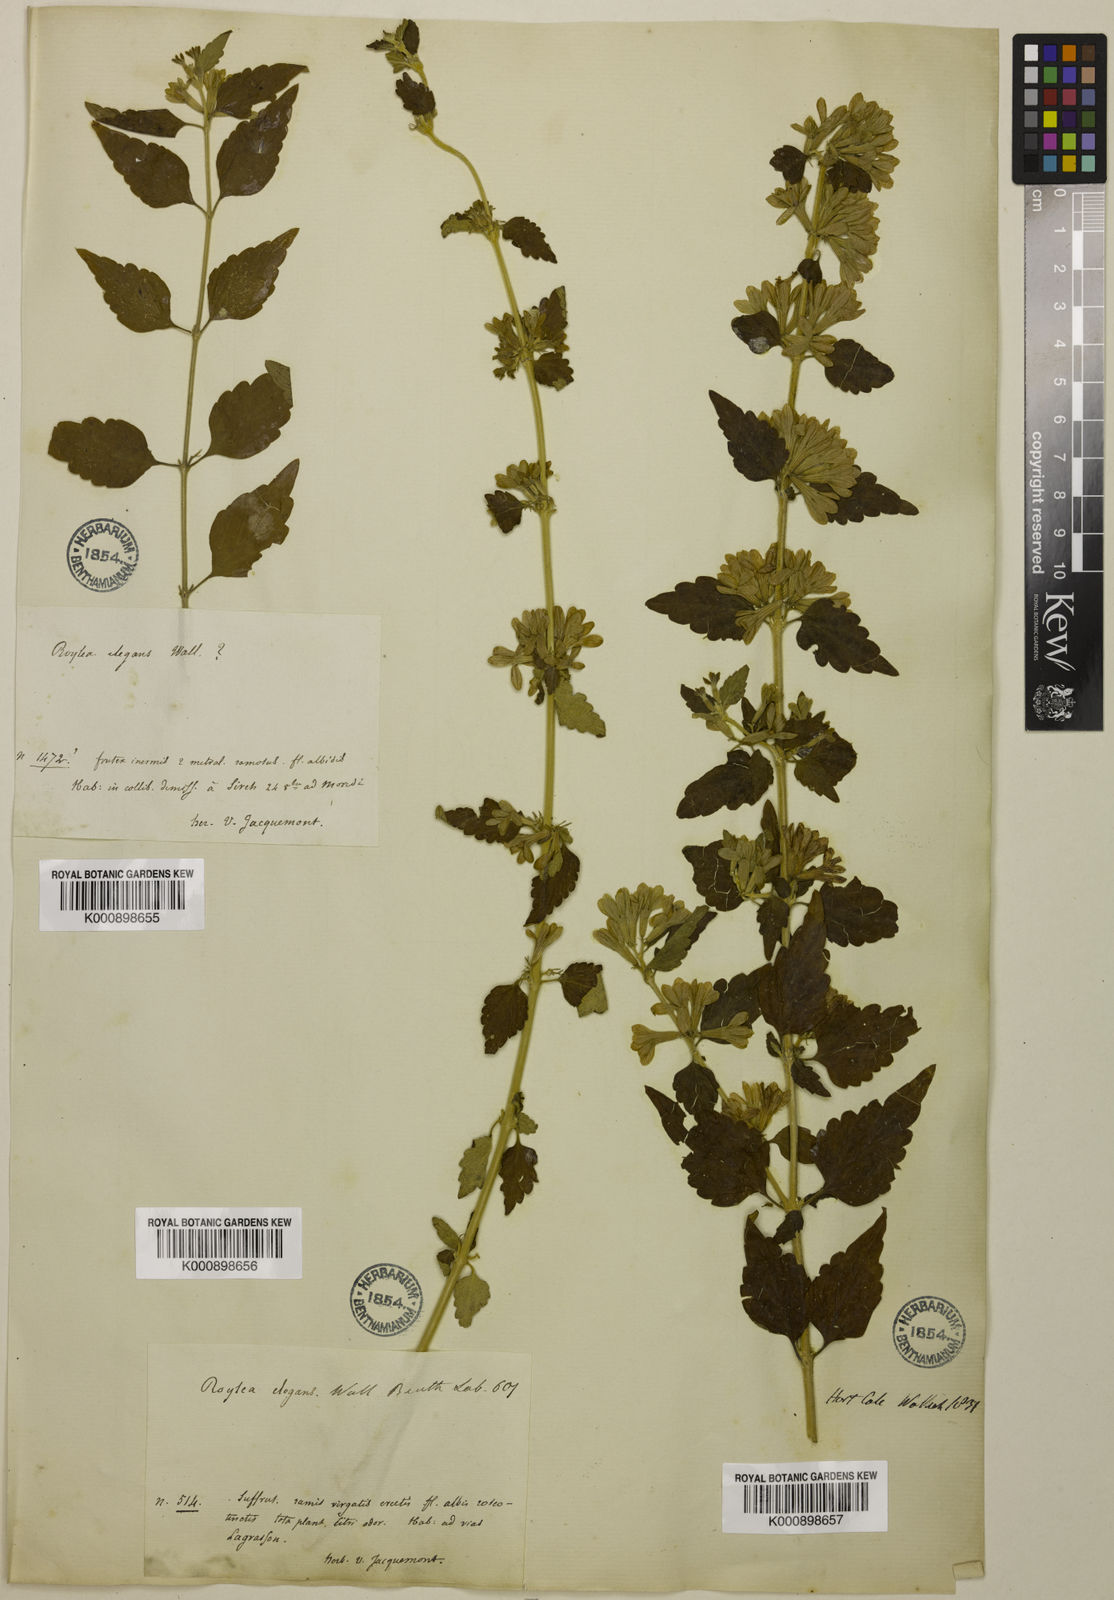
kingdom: Plantae
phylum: Tracheophyta
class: Magnoliopsida
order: Lamiales
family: Lamiaceae
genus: Roylea
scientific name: Roylea
